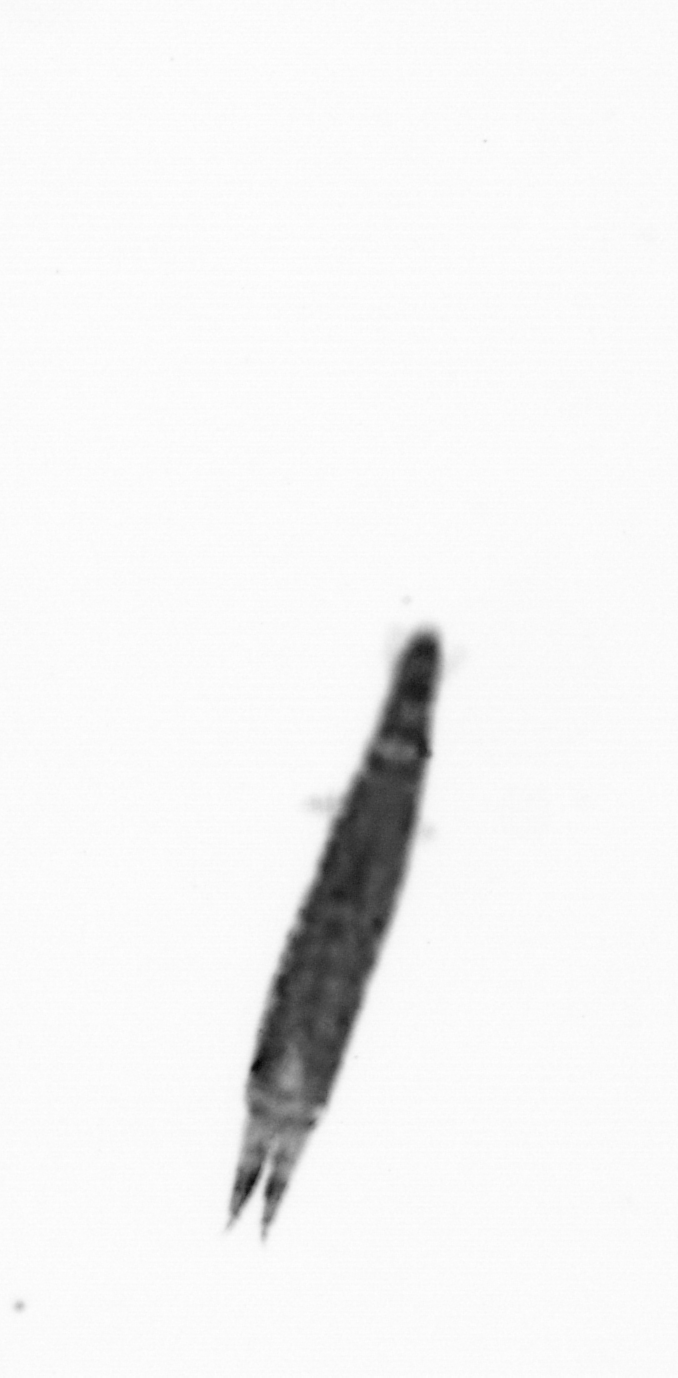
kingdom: Animalia
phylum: Annelida
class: Polychaeta
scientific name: Polychaeta
